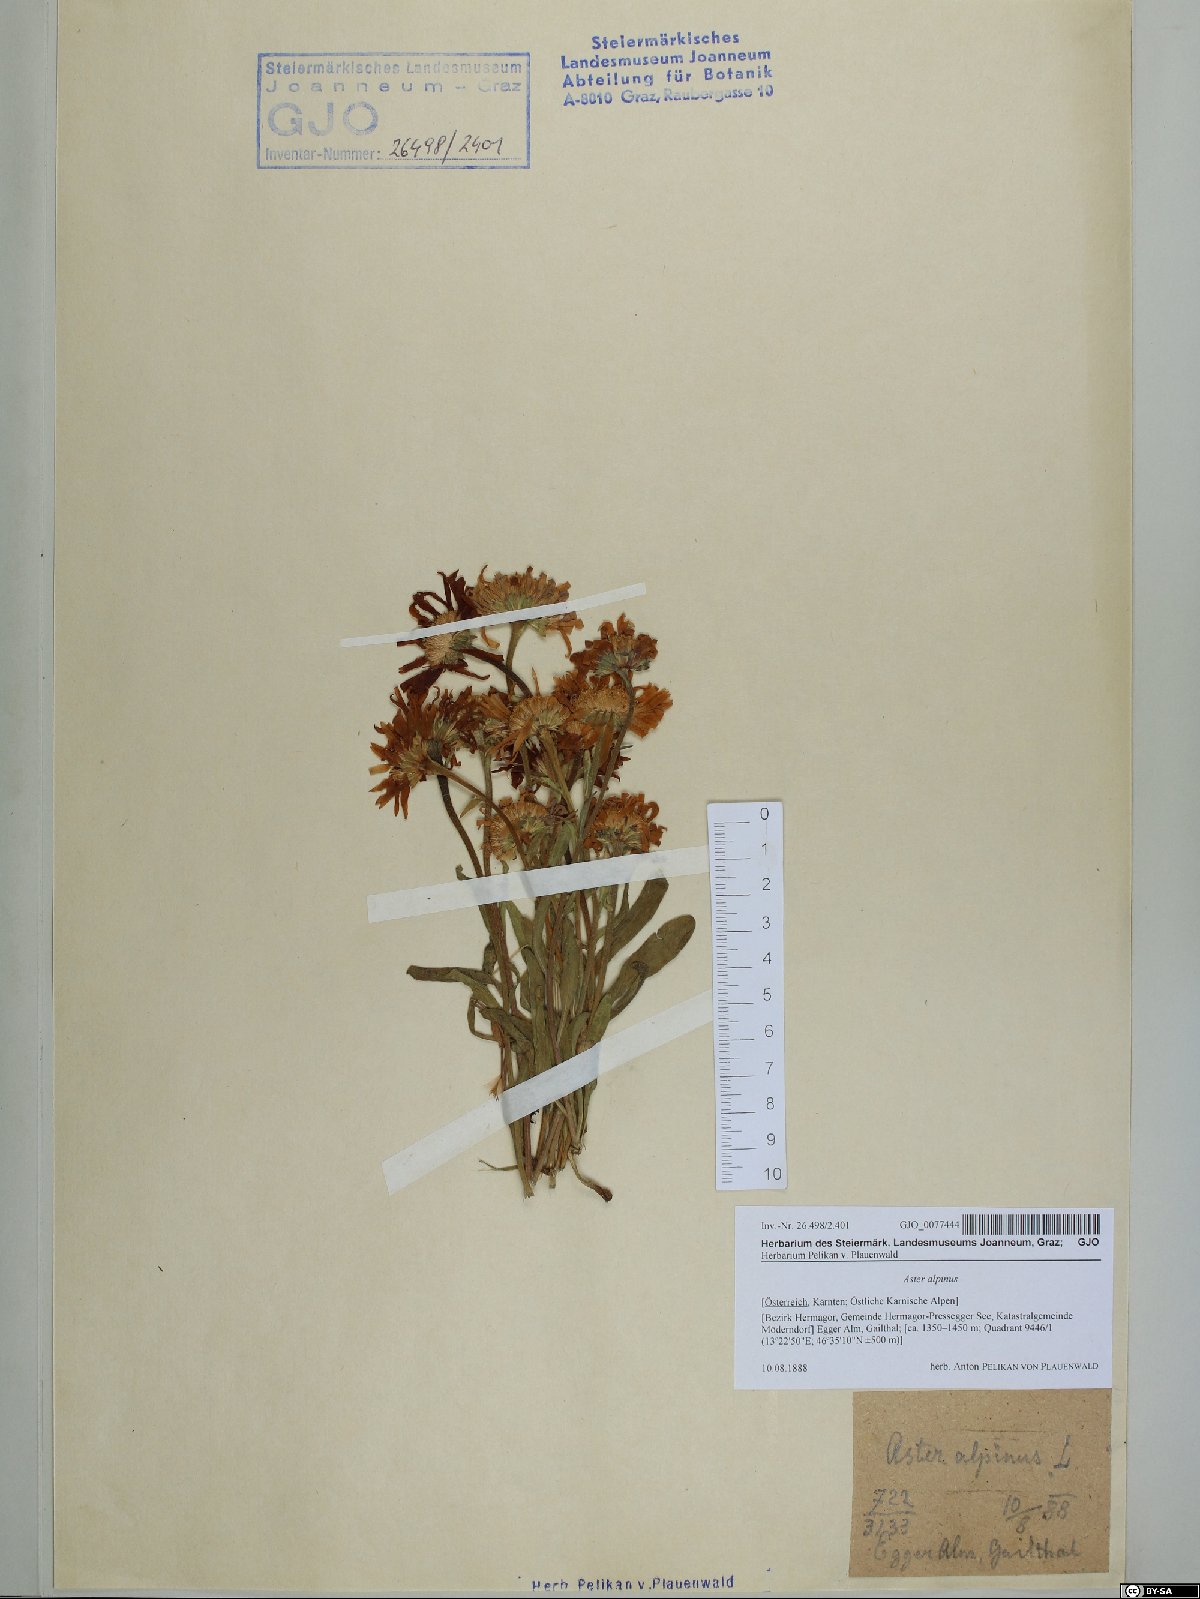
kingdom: Plantae
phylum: Tracheophyta
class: Magnoliopsida
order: Asterales
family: Asteraceae
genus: Aster
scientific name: Aster alpinus
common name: Alpine aster
